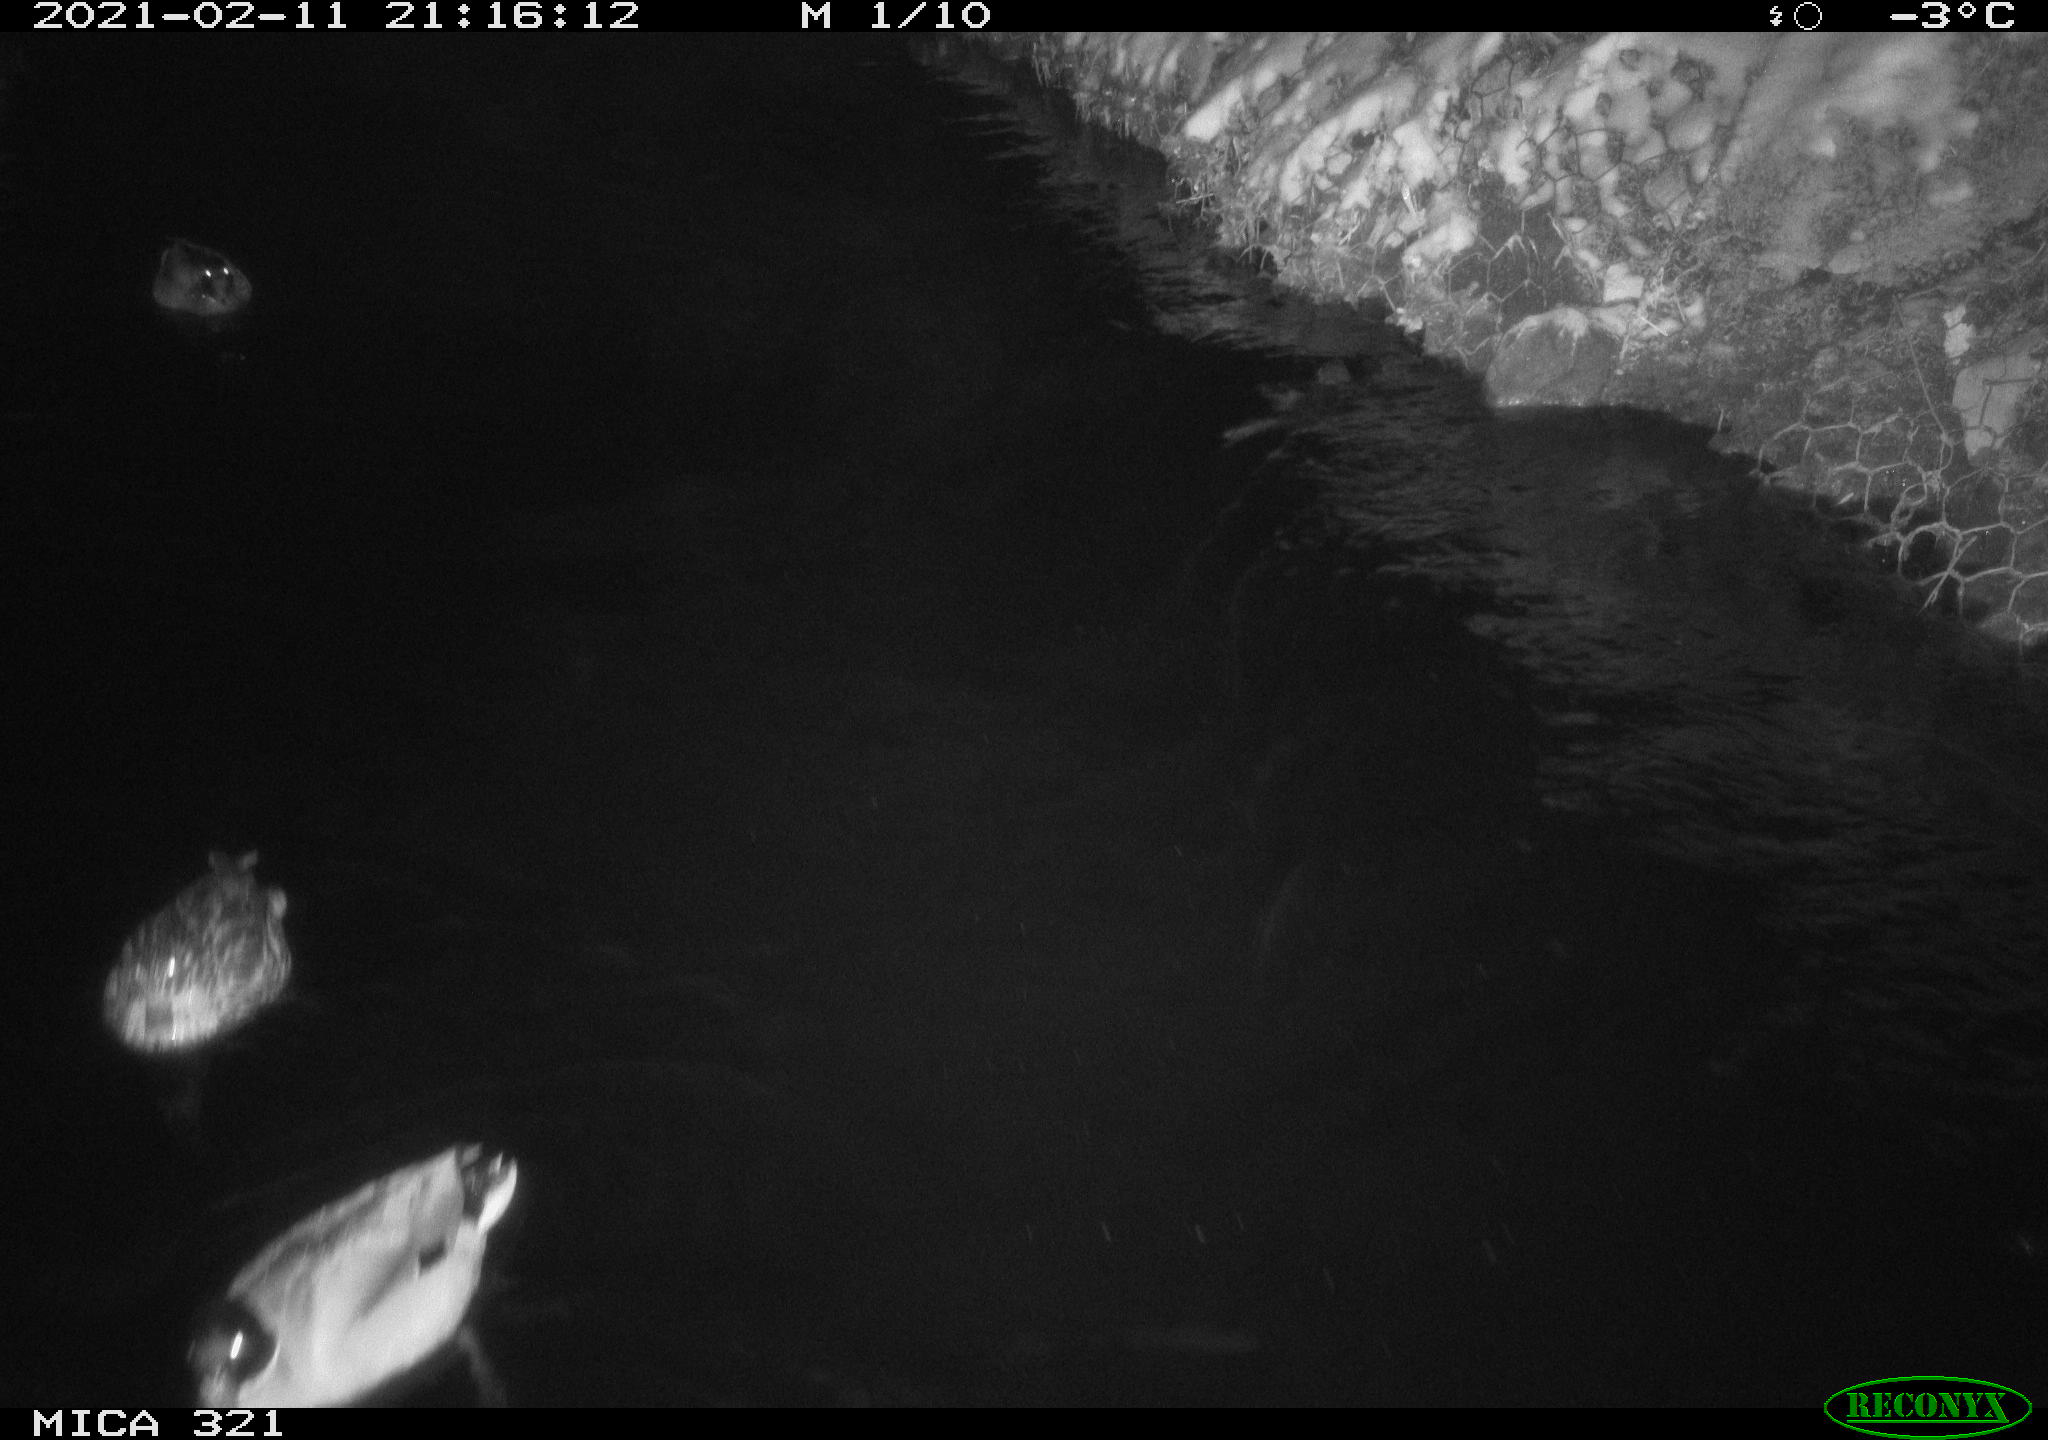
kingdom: Animalia
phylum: Chordata
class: Aves
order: Anseriformes
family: Anatidae
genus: Anas
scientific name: Anas platyrhynchos
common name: Mallard
